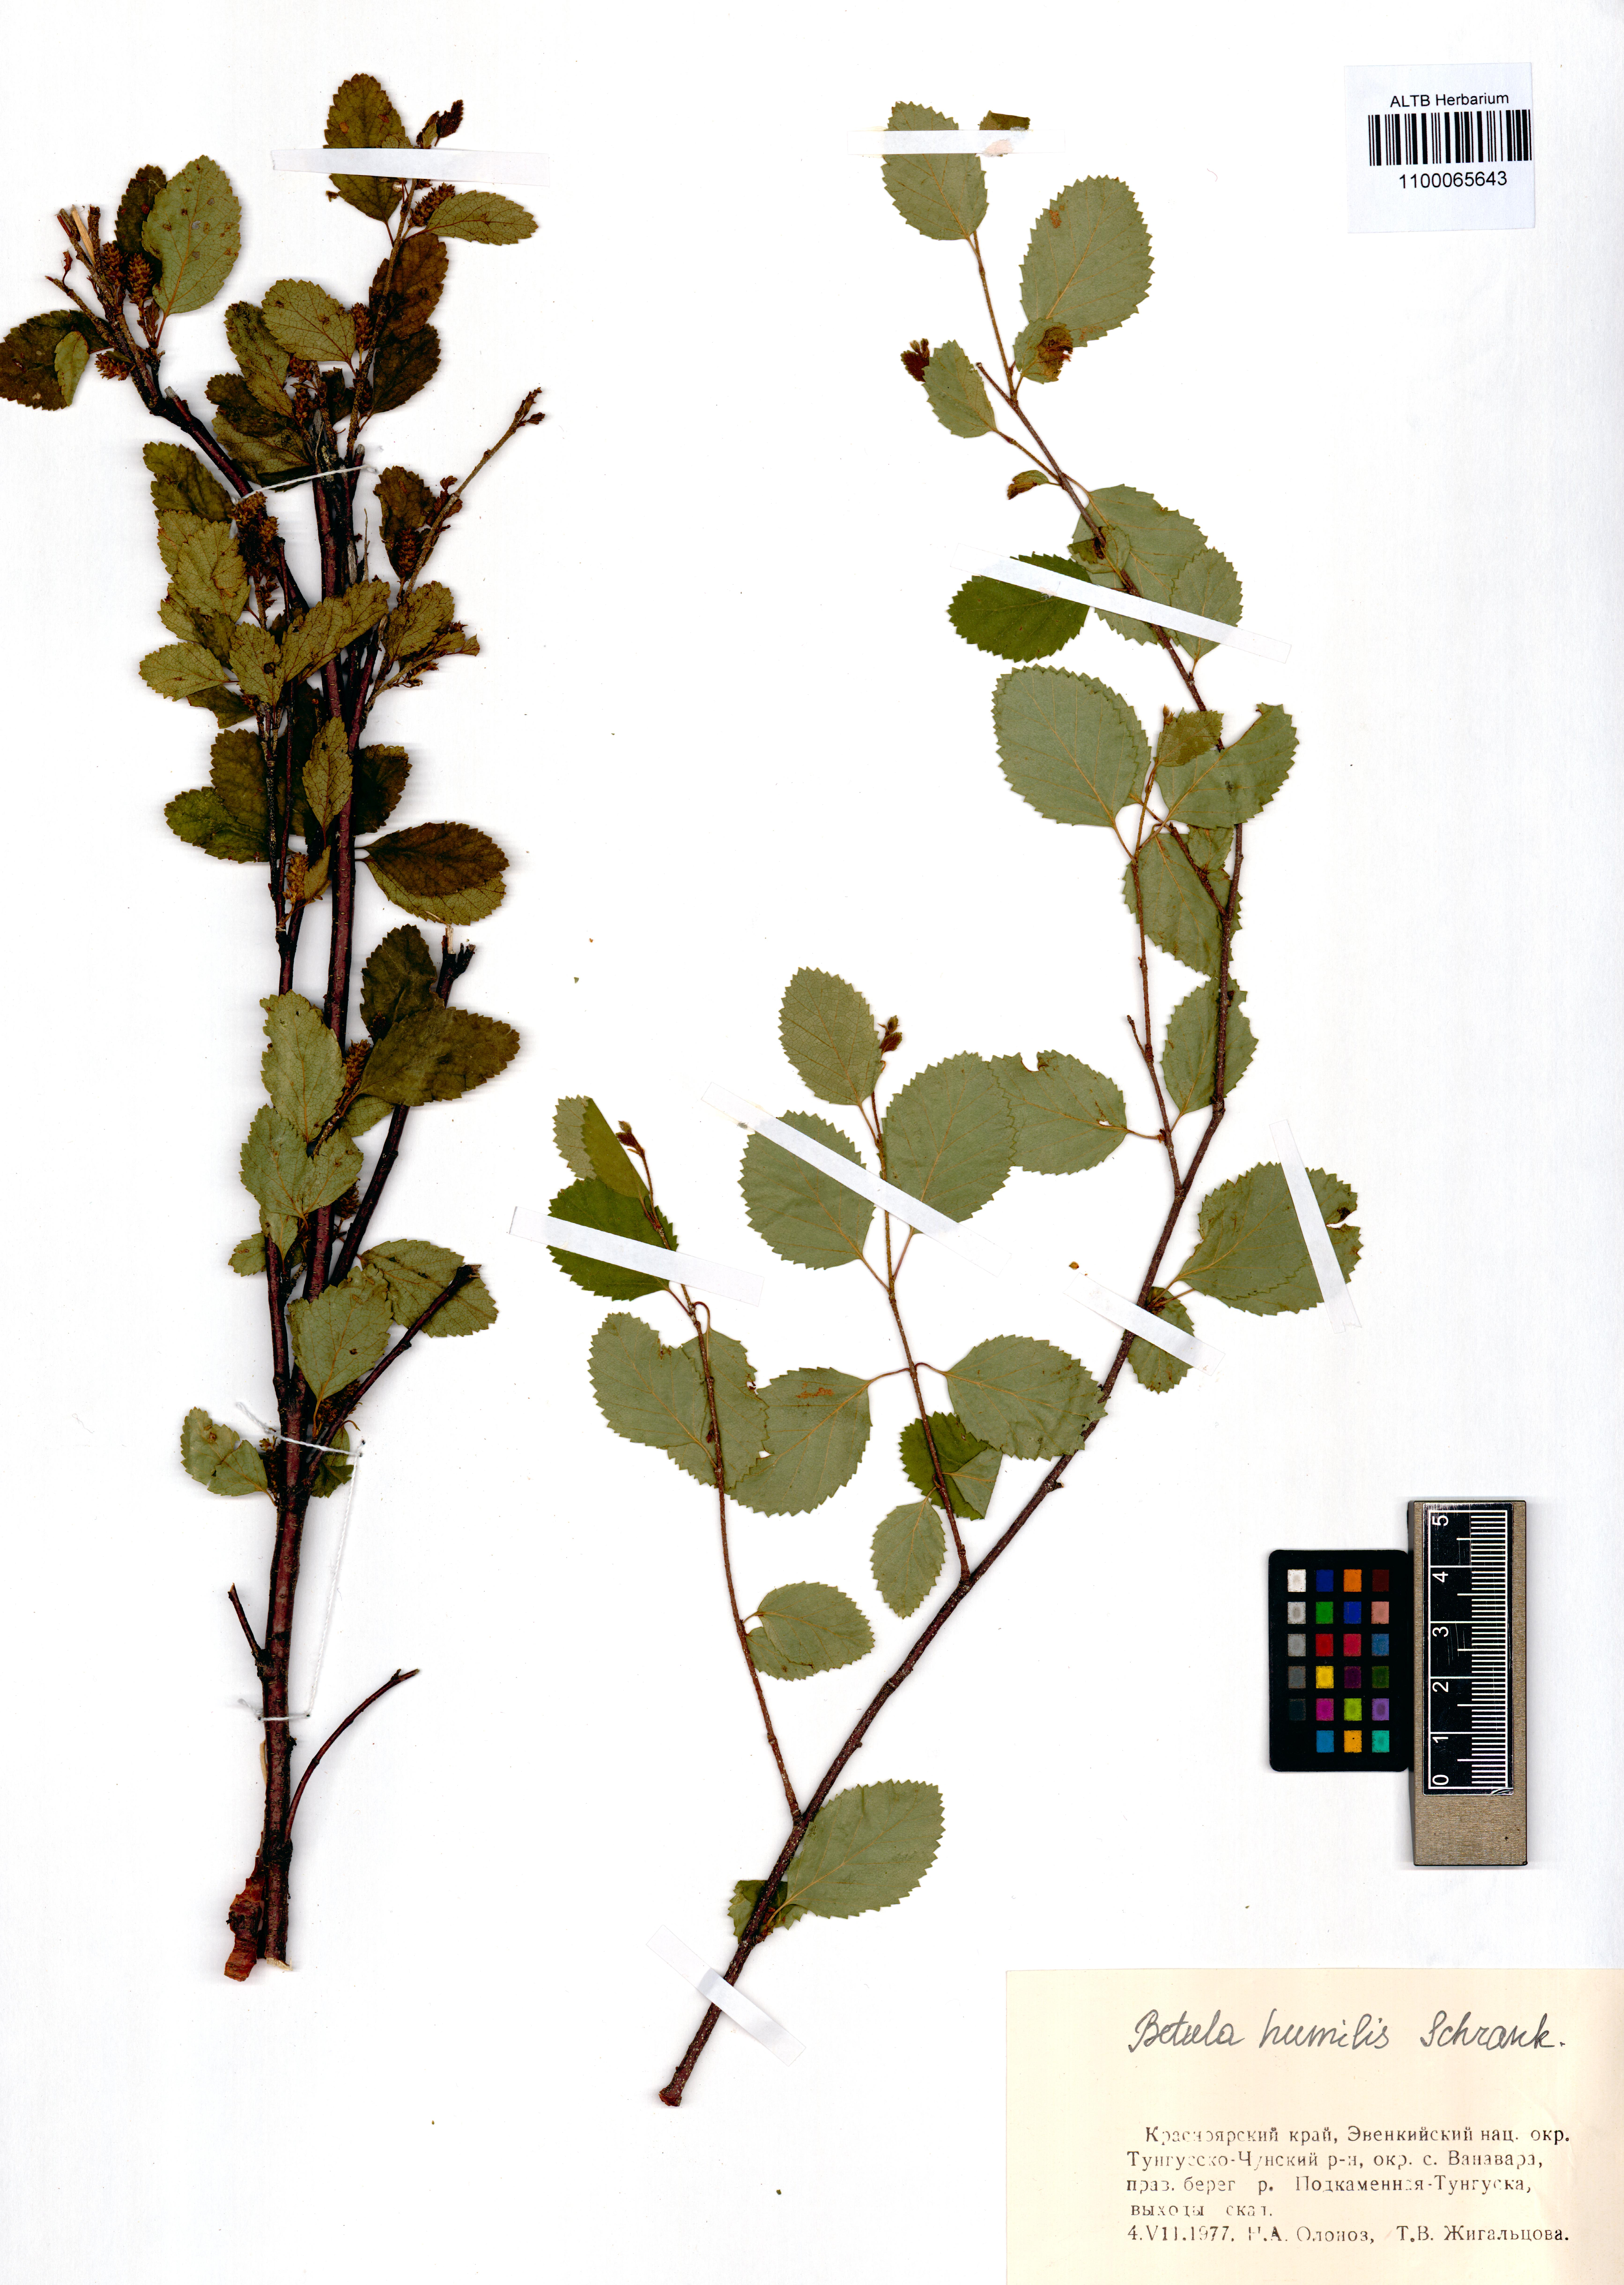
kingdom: Plantae
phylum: Tracheophyta
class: Magnoliopsida
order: Fagales
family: Betulaceae
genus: Betula
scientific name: Betula humilis
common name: Shrubby birch
